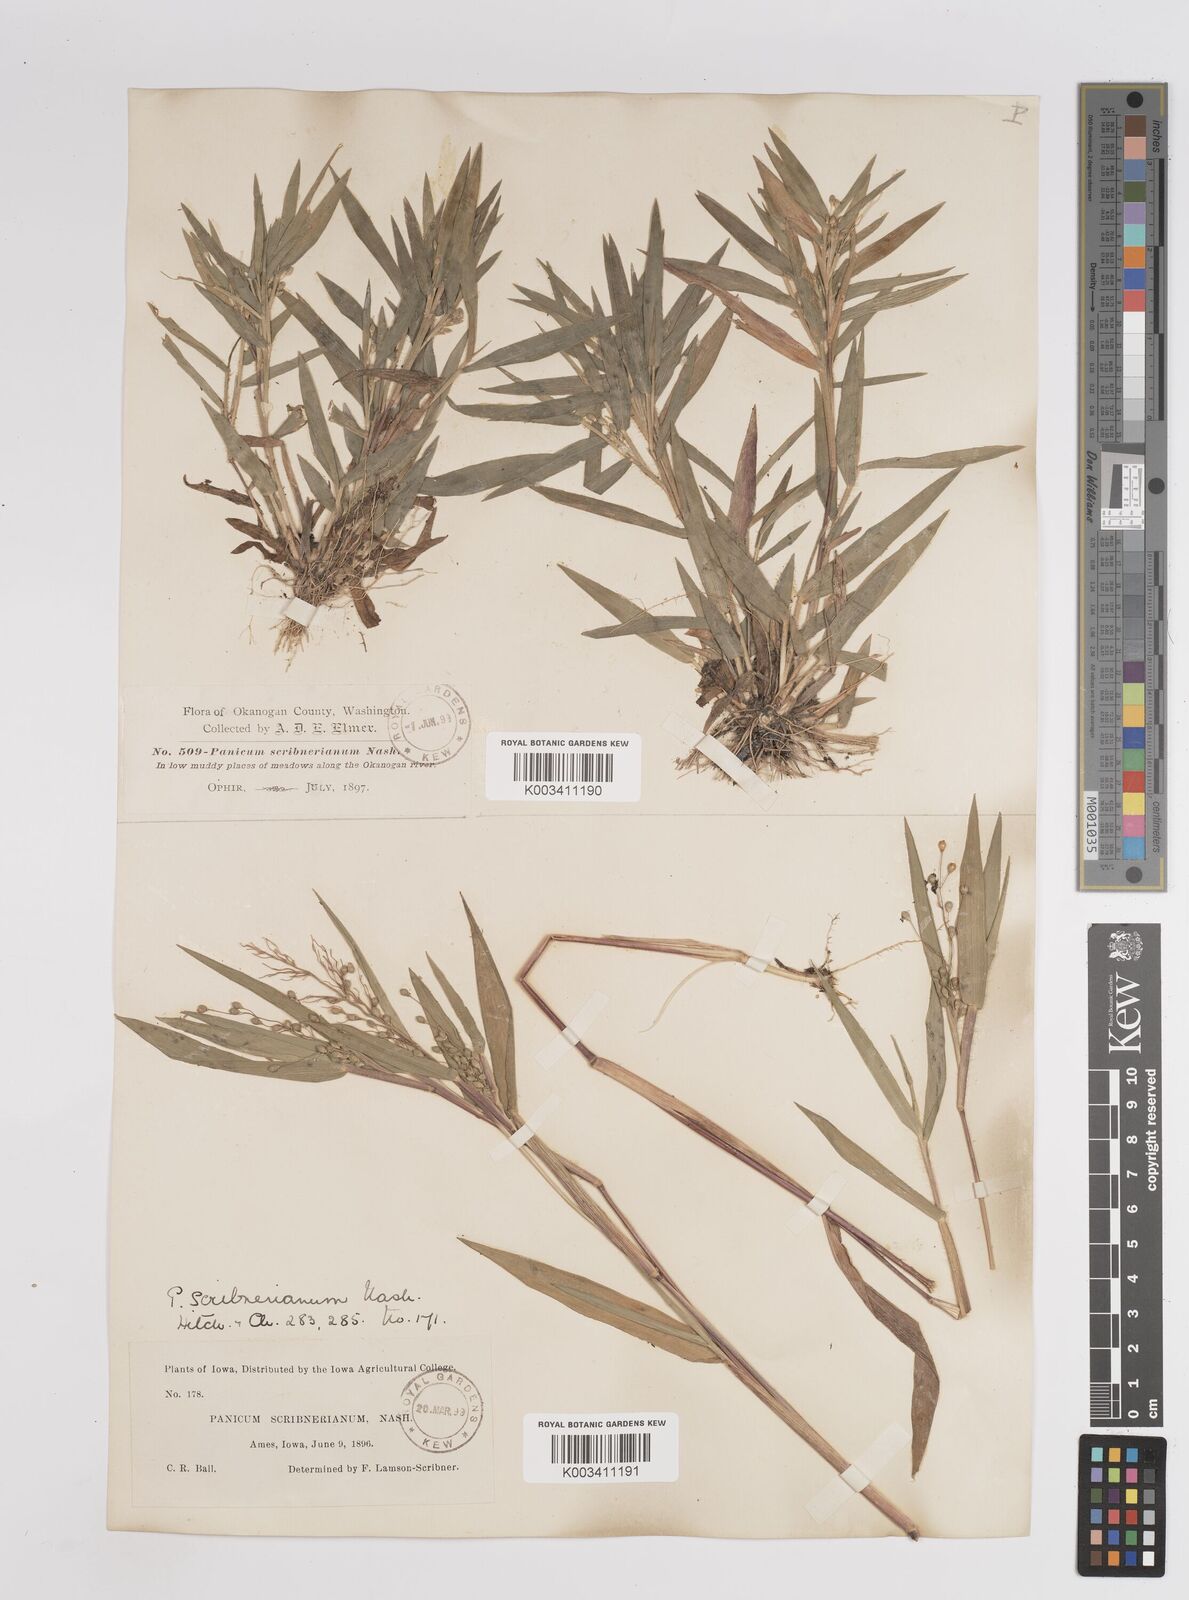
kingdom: Plantae
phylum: Tracheophyta
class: Liliopsida
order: Poales
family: Poaceae
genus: Dichanthelium
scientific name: Dichanthelium oligosanthes
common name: Few-anther obscuregrass
